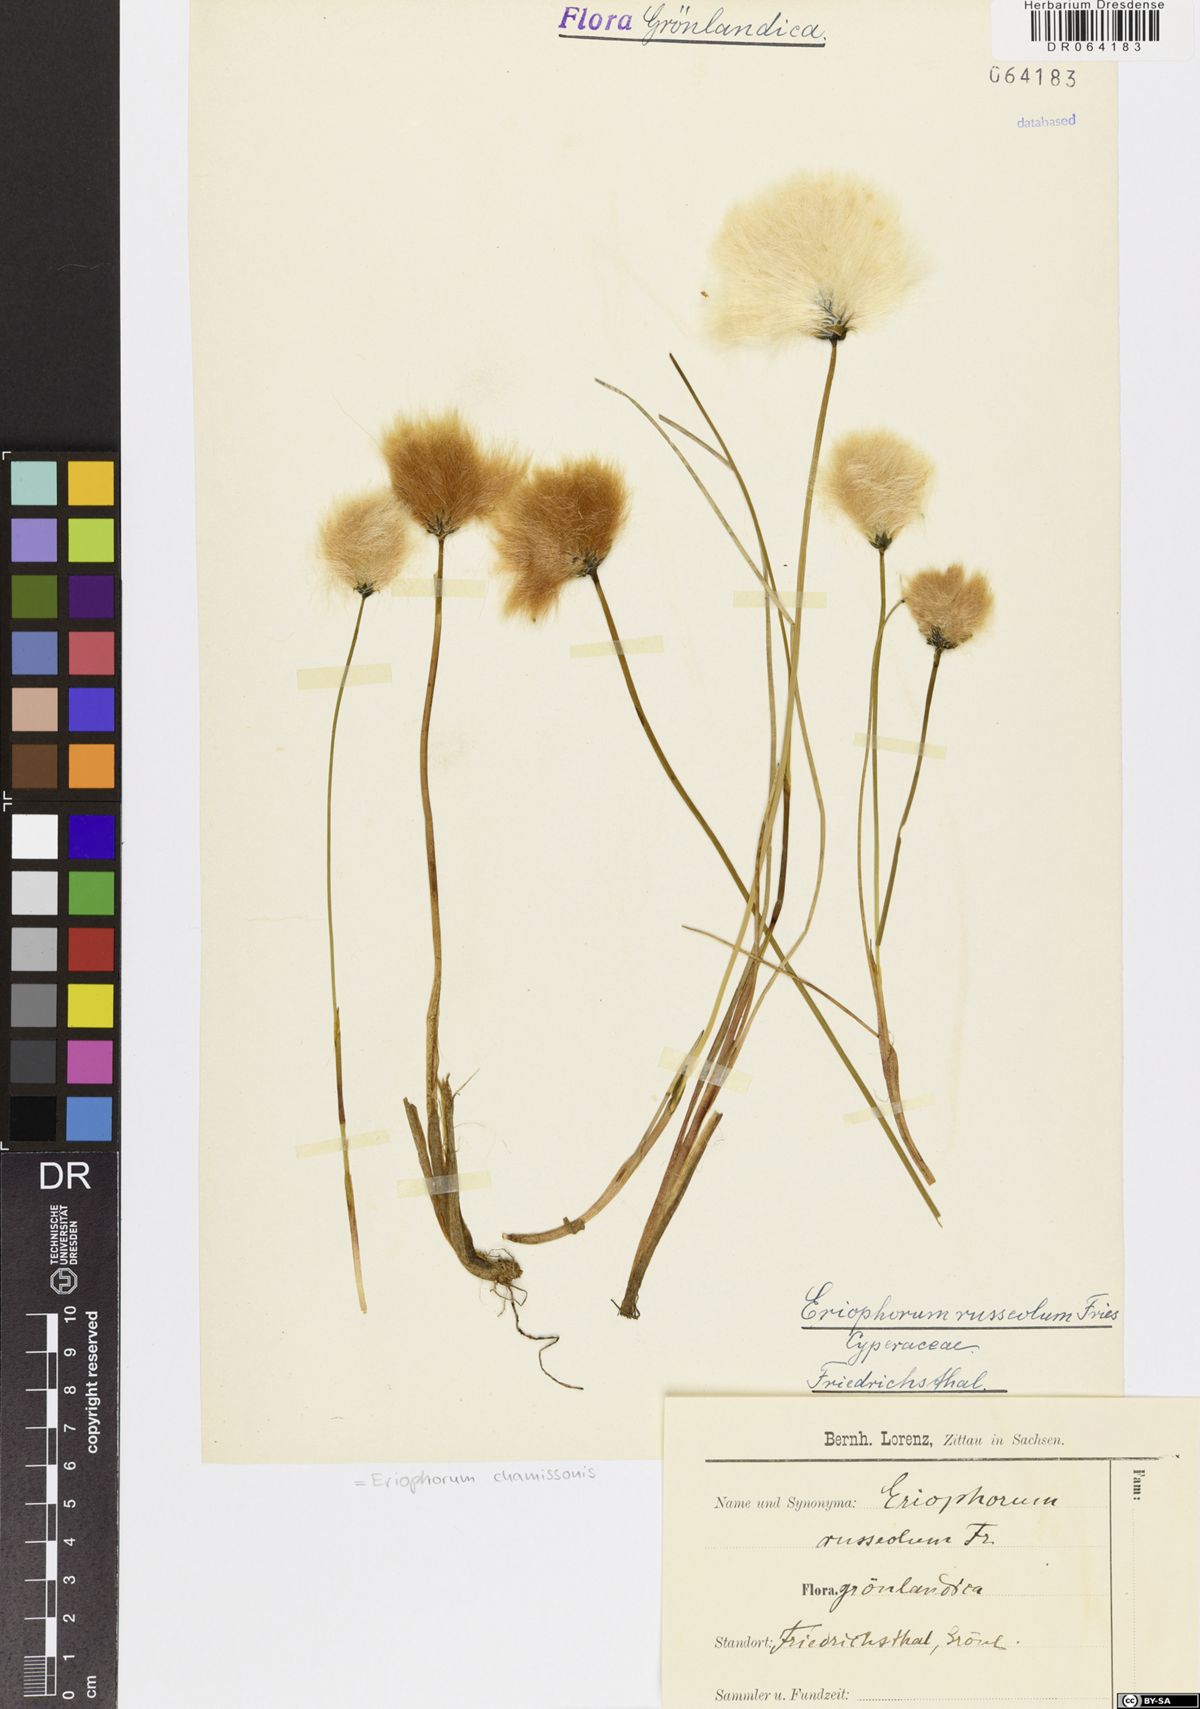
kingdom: Plantae
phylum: Tracheophyta
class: Liliopsida
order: Poales
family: Cyperaceae
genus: Eriophorum
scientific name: Eriophorum chamissonis
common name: Chamisso's cottongrass
